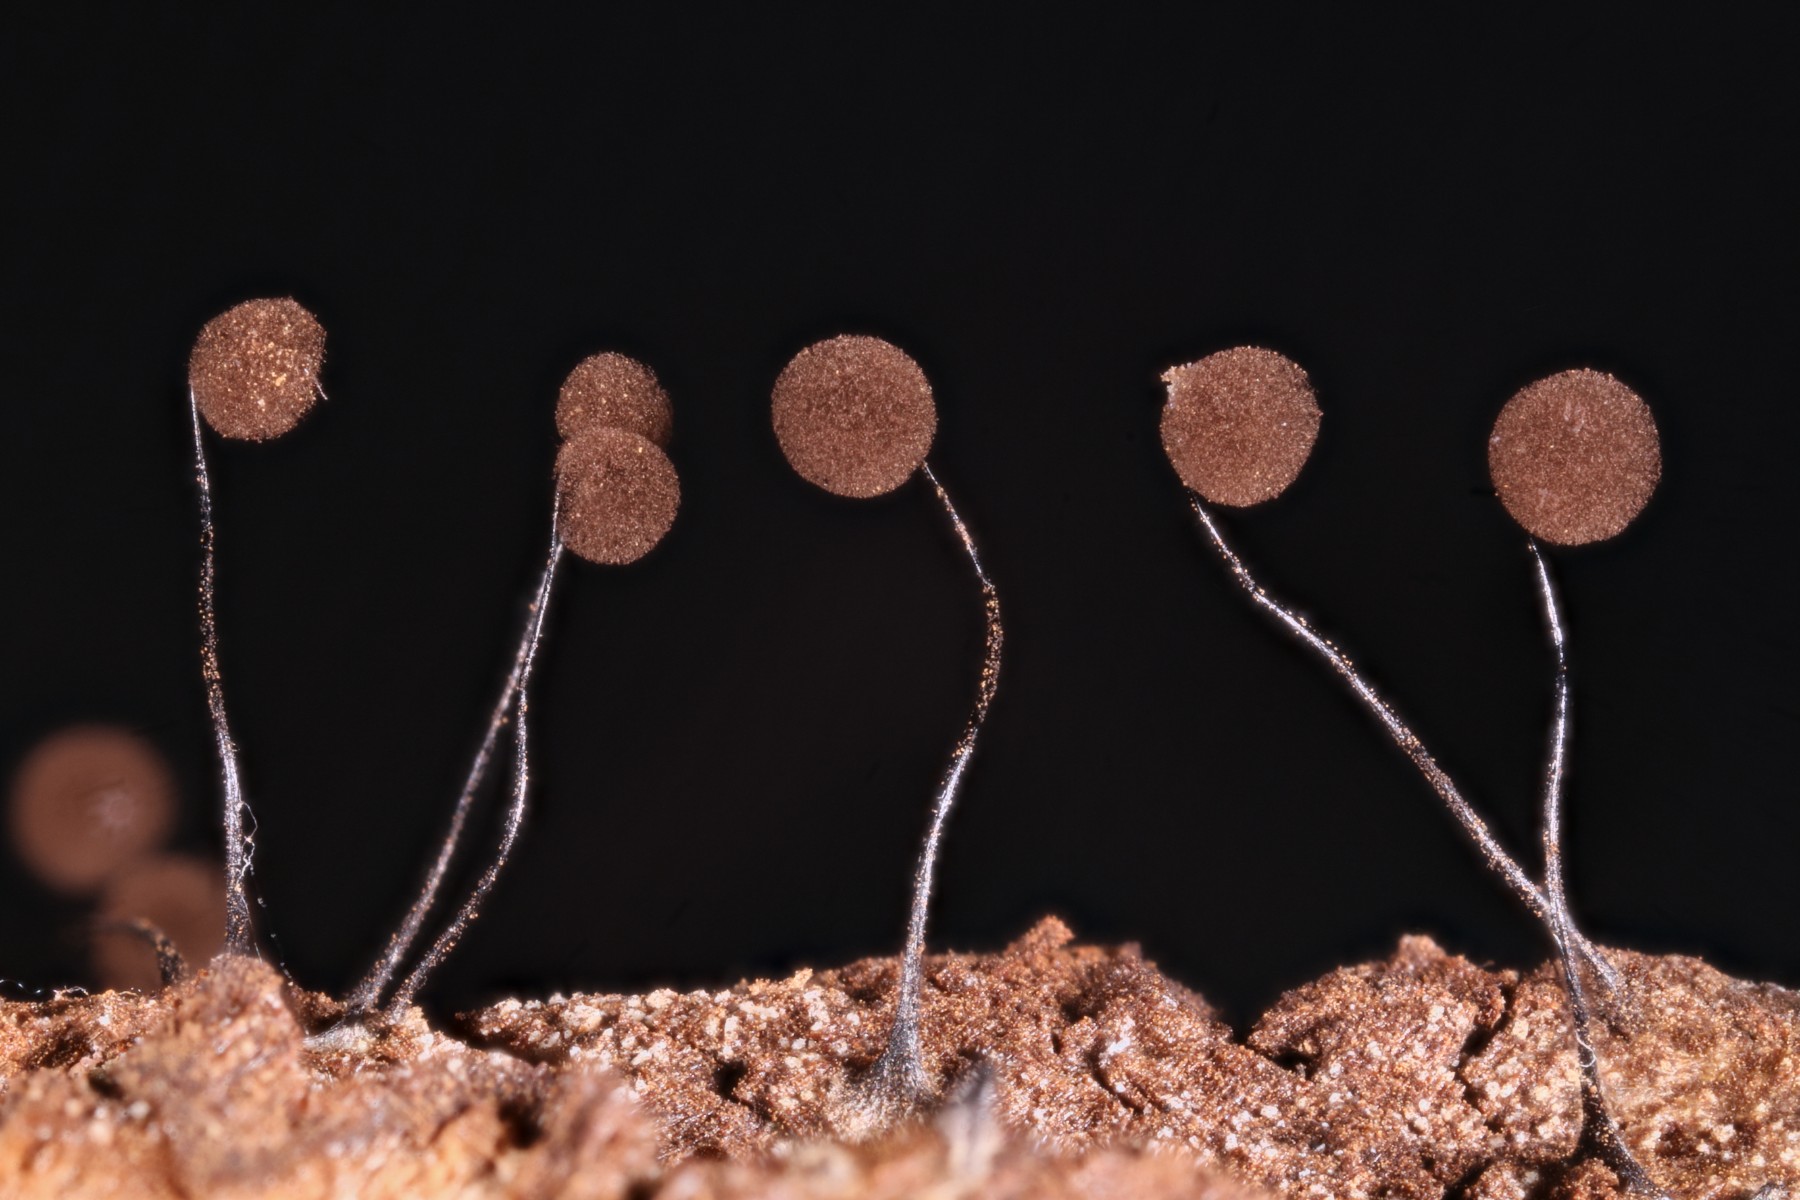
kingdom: Protozoa
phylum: Mycetozoa
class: Myxomycetes
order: Stemonitidales
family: Stemonitidaceae
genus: Comatricha
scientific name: Comatricha nigra
